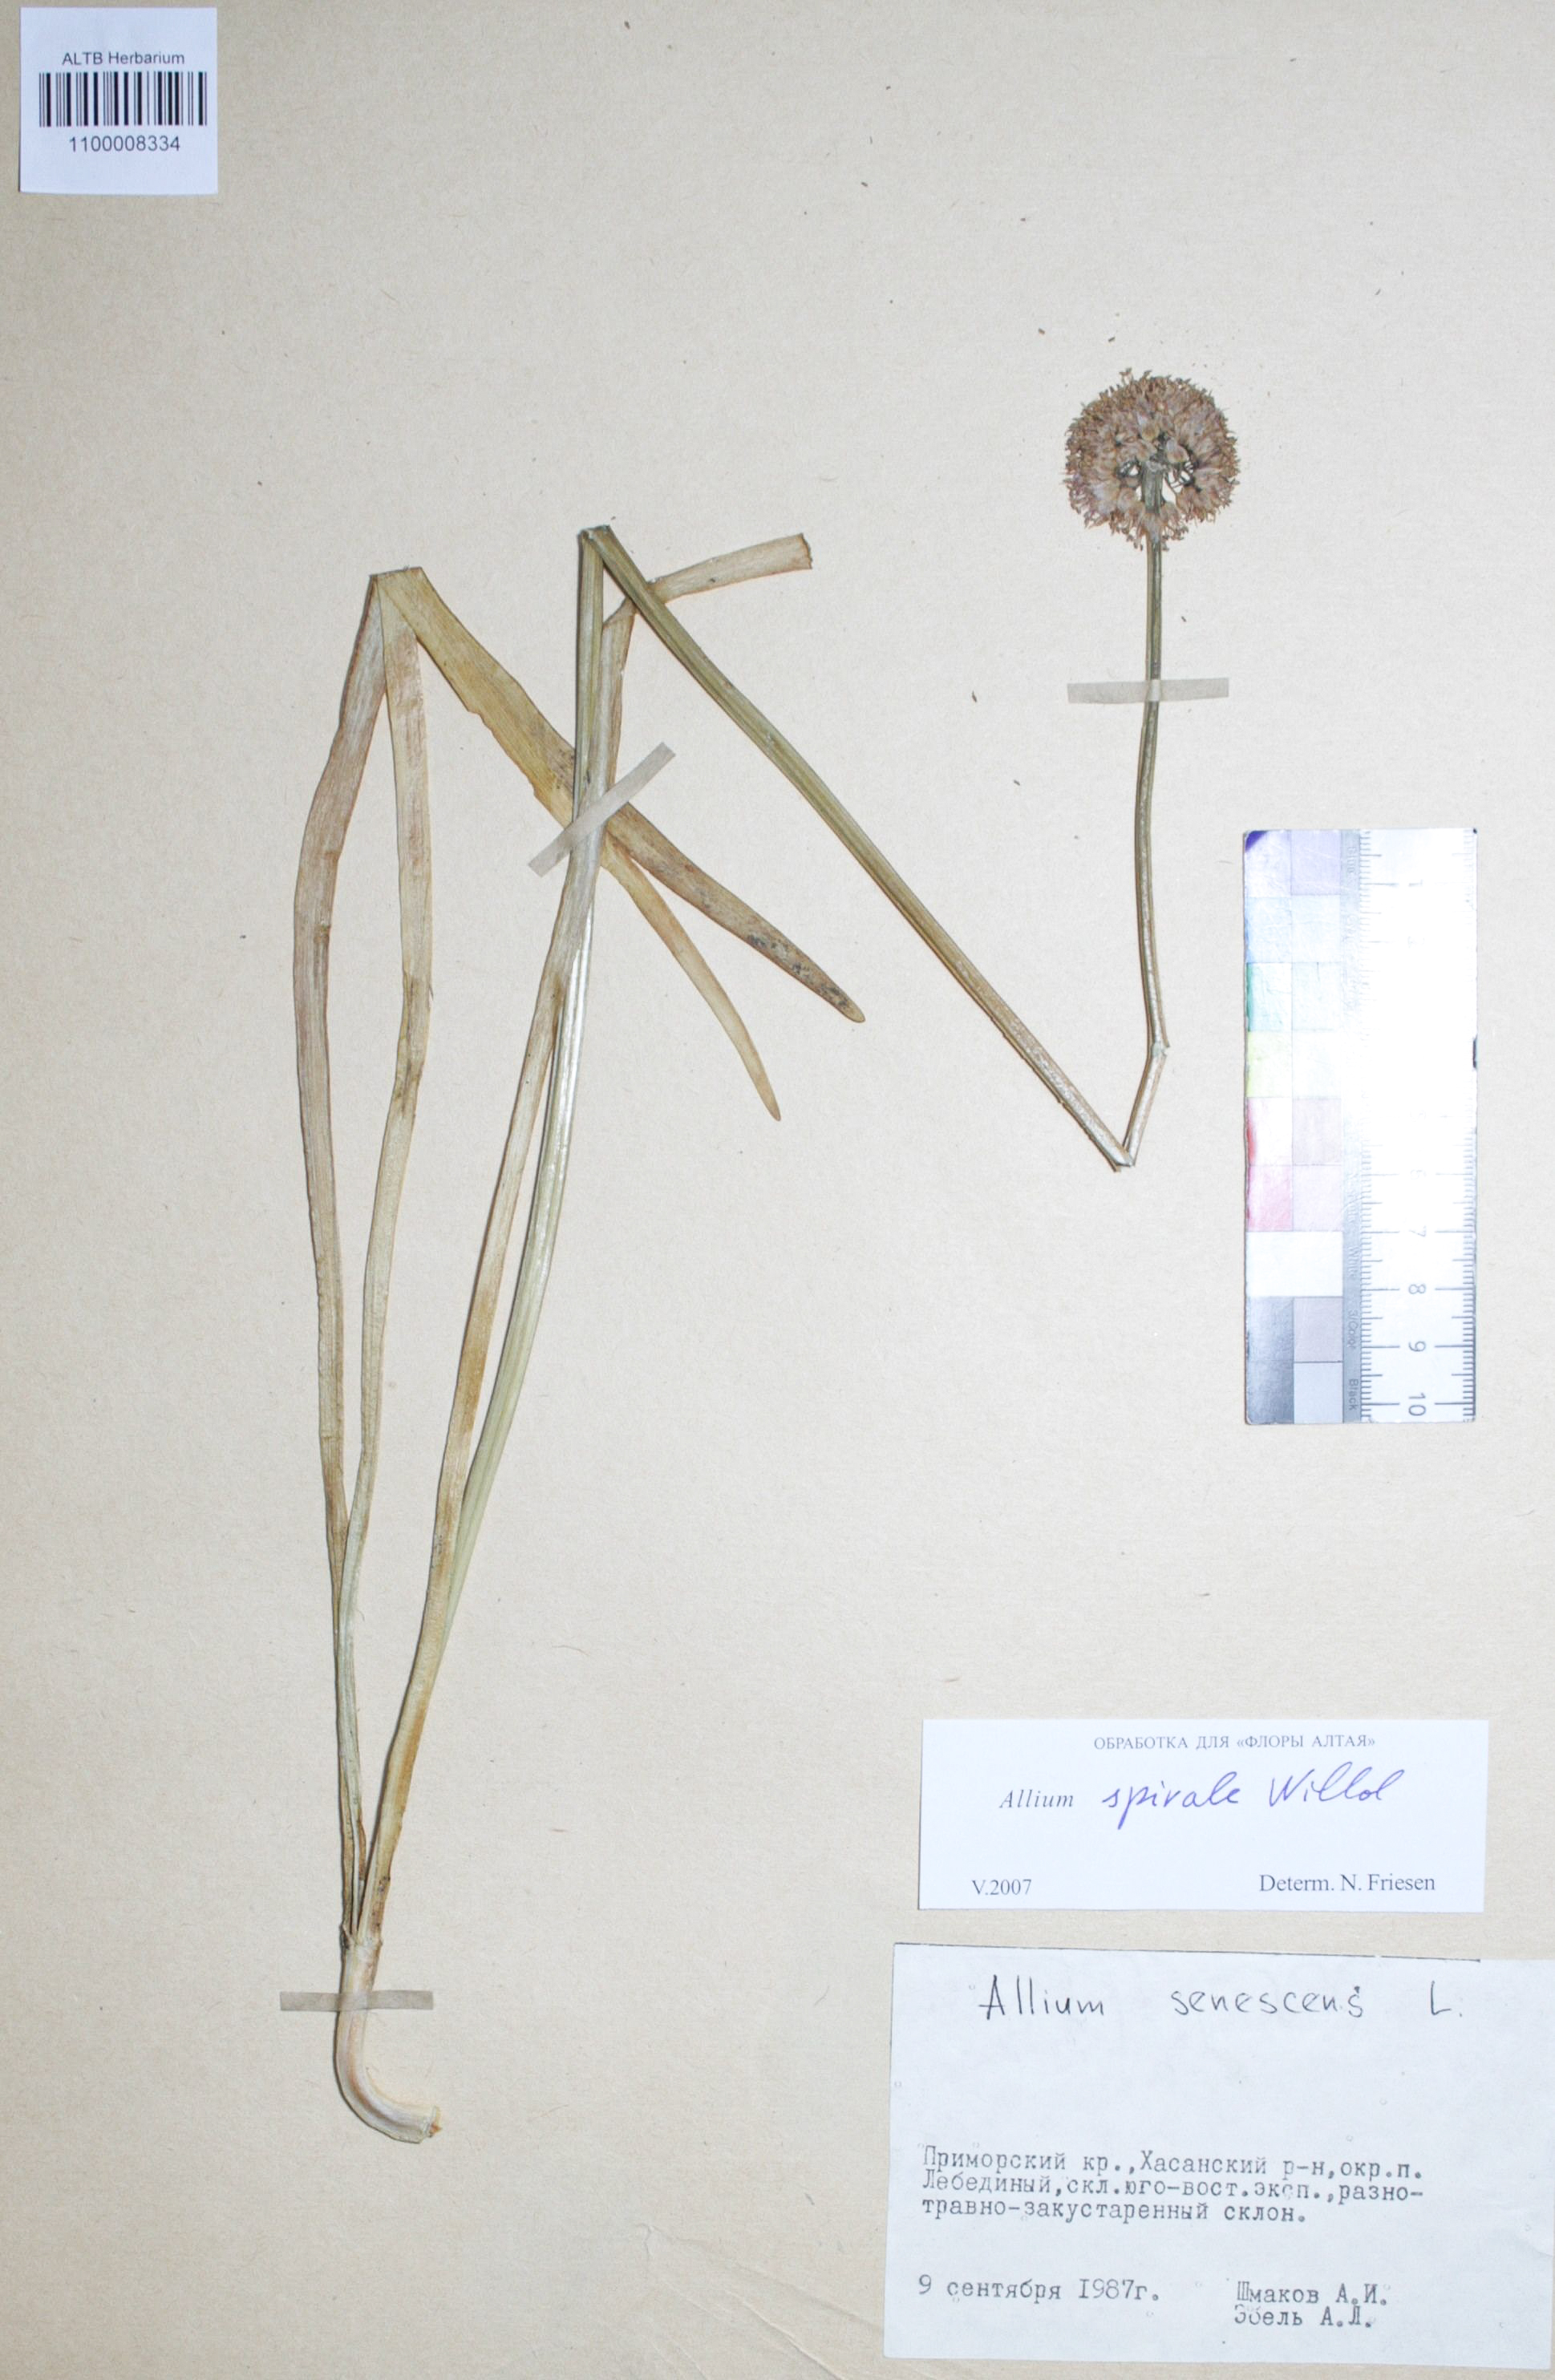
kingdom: Plantae
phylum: Tracheophyta
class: Liliopsida
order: Asparagales
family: Amaryllidaceae
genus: Allium
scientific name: Allium spirale
